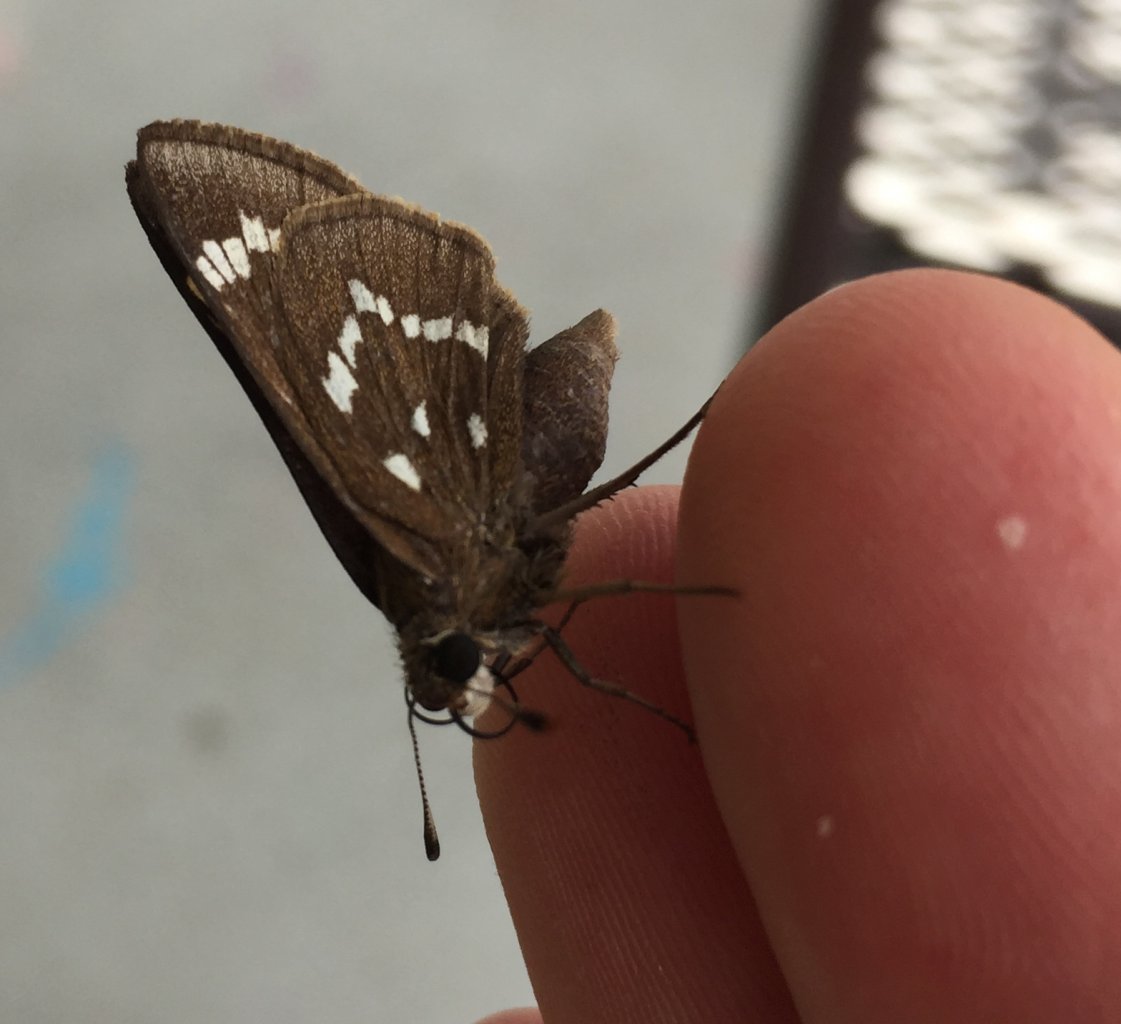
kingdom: Animalia
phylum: Arthropoda
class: Insecta
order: Lepidoptera
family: Hesperiidae
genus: Atrytonopsis
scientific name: Atrytonopsis loammi
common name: Loammi Skipper
